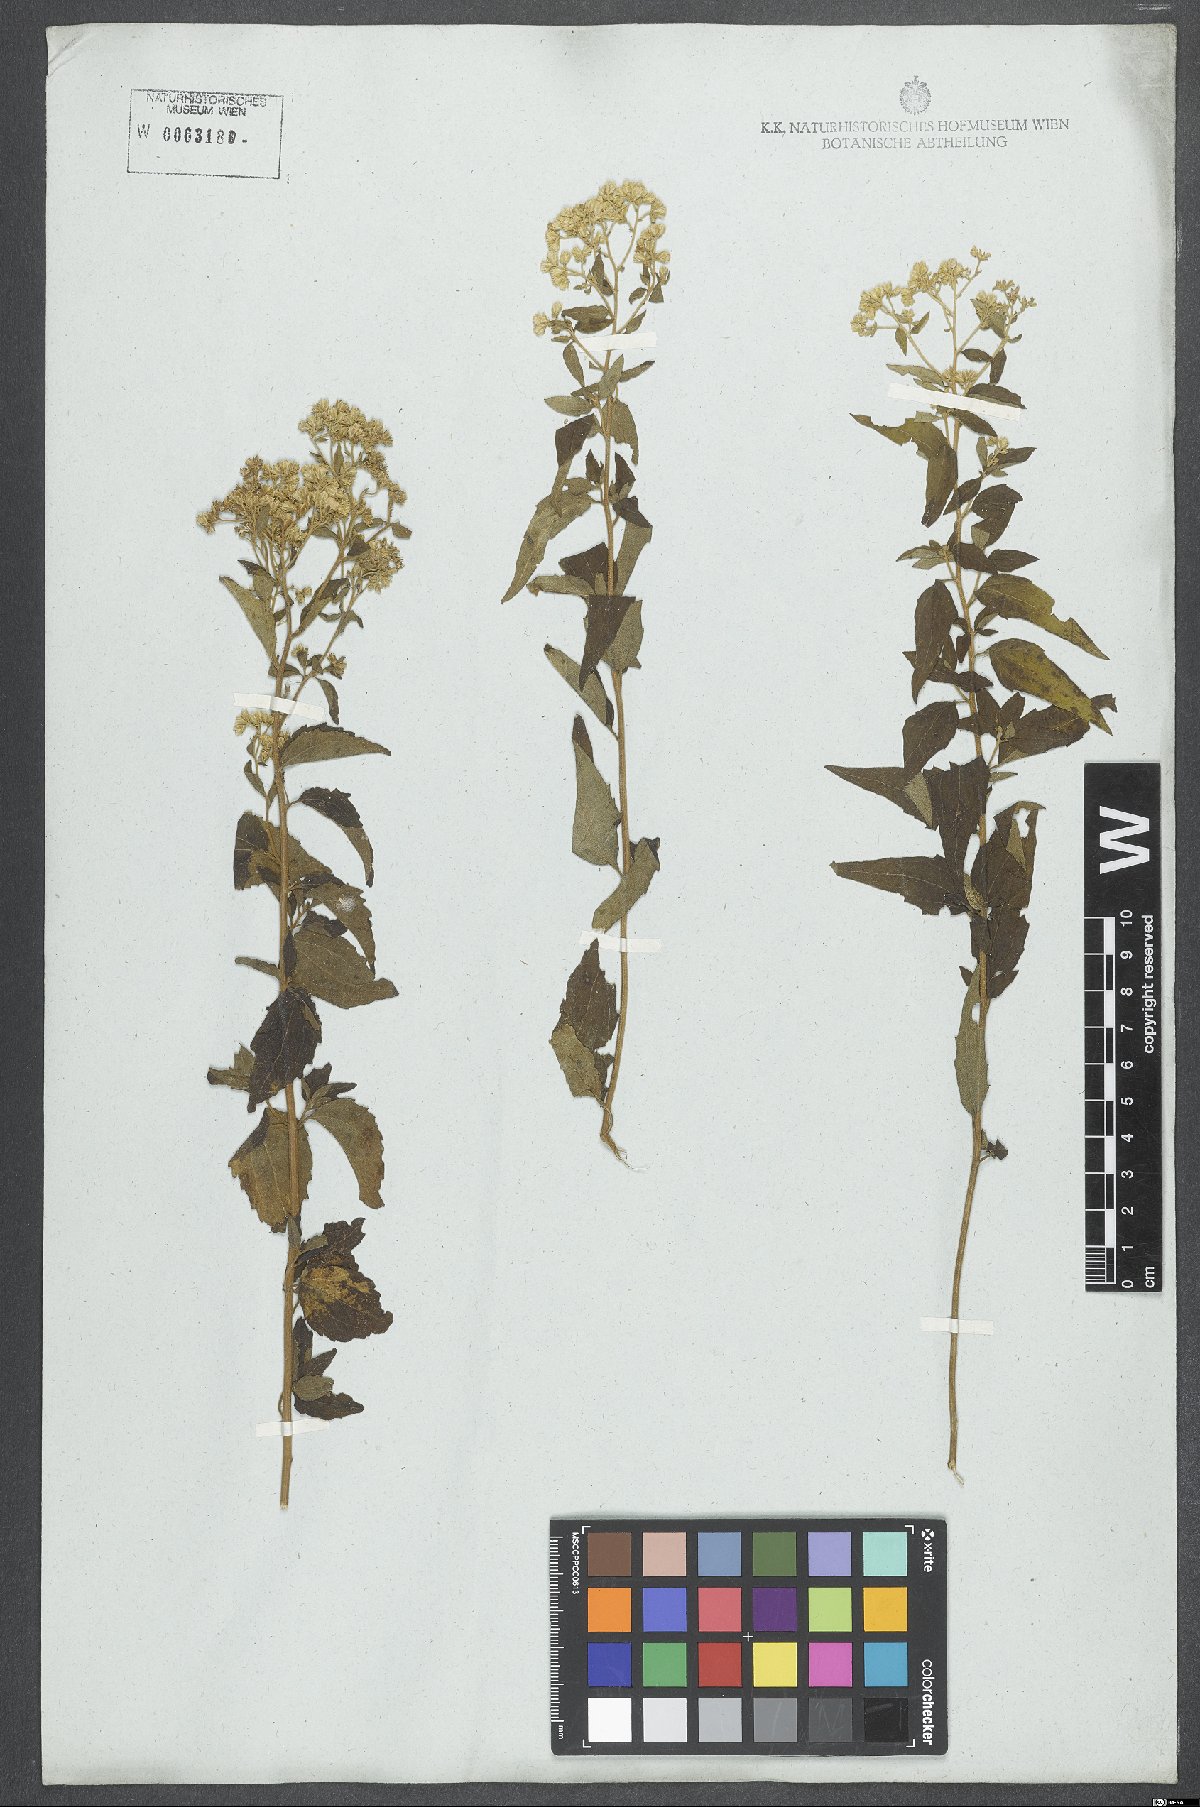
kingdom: Plantae
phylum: Tracheophyta
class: Magnoliopsida
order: Asterales
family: Asteraceae
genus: Eupatorium
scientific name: Eupatorium
